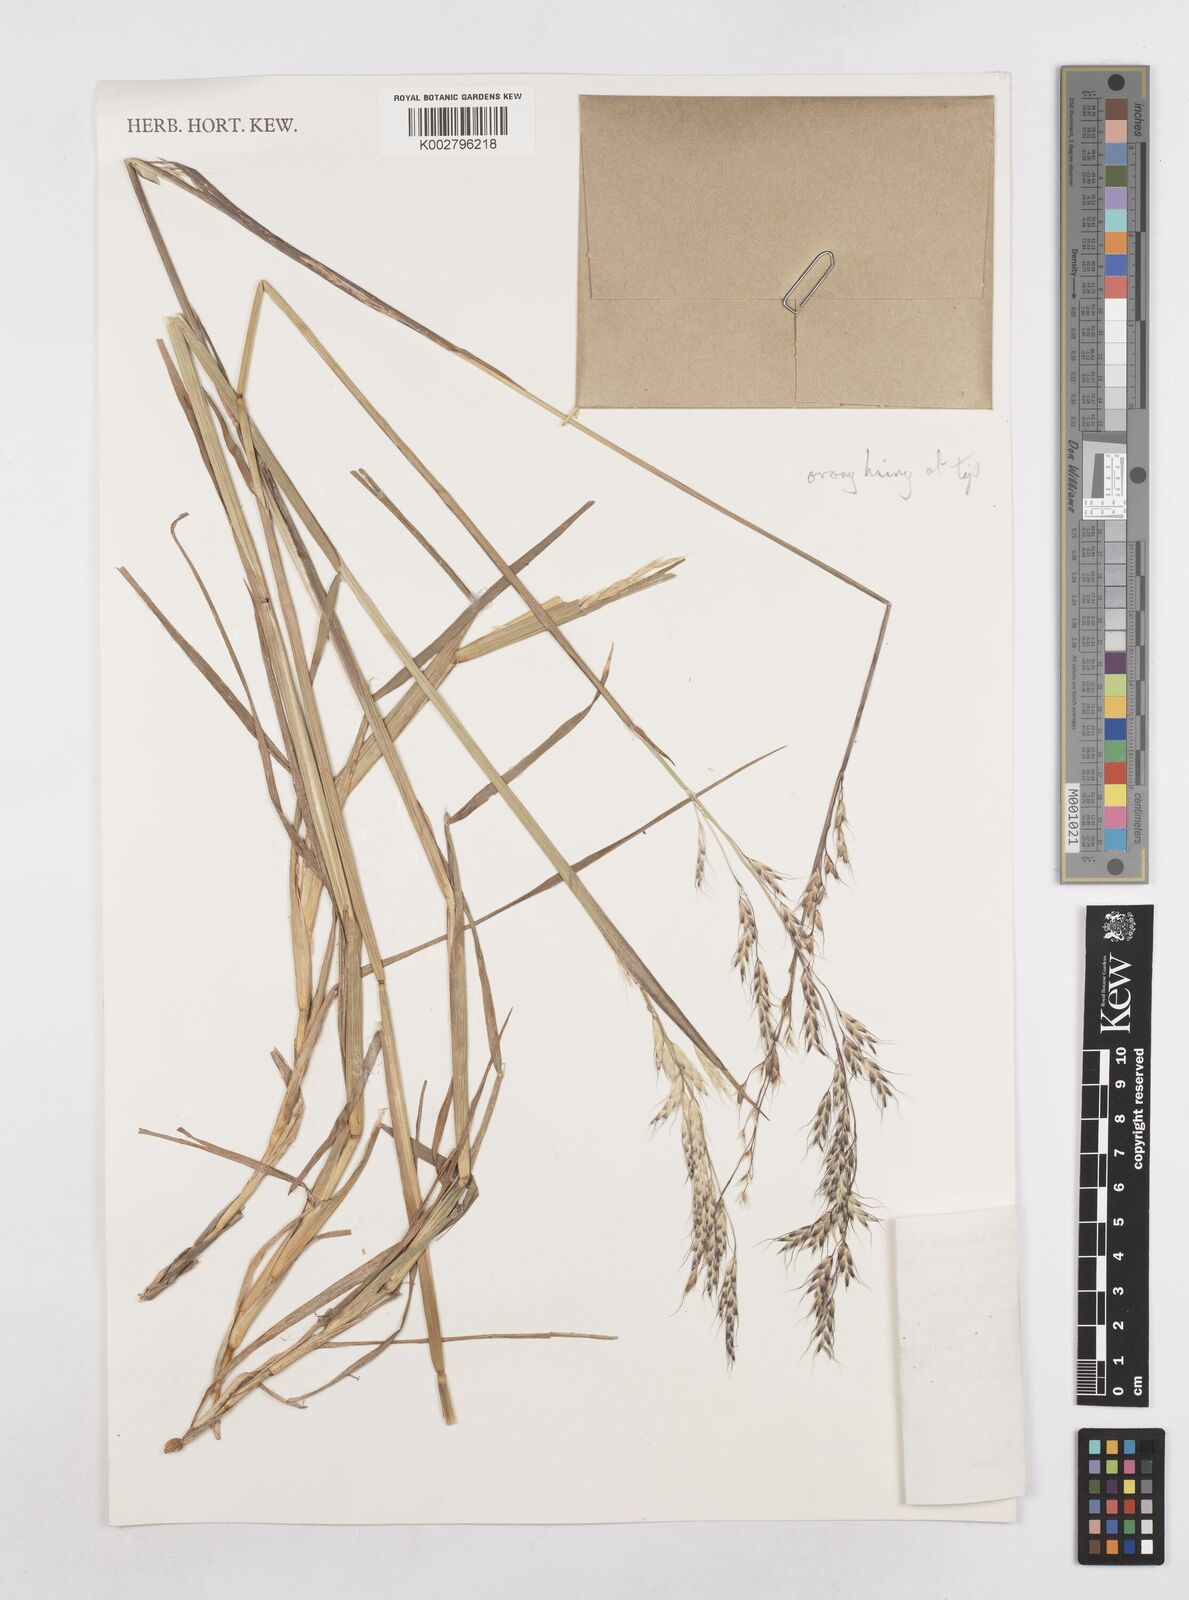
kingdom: Plantae
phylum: Tracheophyta
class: Liliopsida
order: Poales
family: Poaceae
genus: Amphibromus
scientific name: Amphibromus scabrivalvis
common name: Swamp wallaby grass
